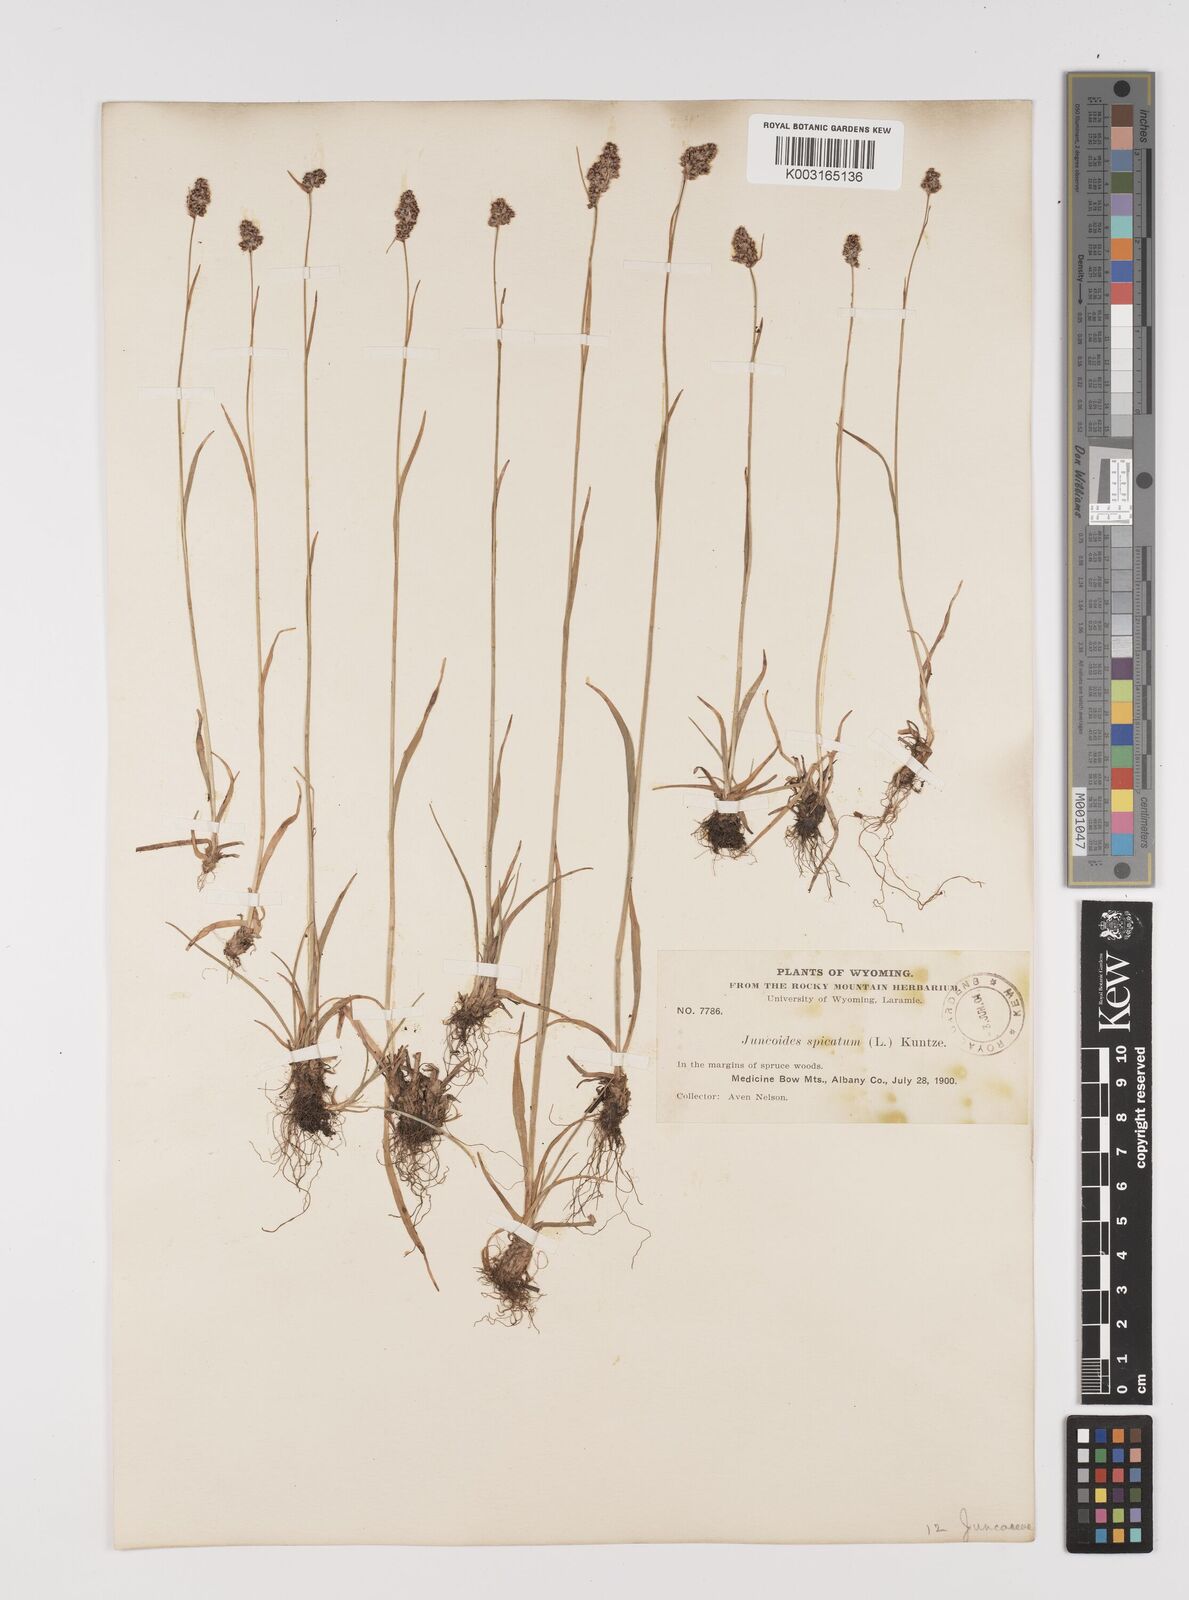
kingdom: Plantae
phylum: Tracheophyta
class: Liliopsida
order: Poales
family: Juncaceae
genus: Luzula
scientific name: Luzula spicata
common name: Spiked wood-rush
